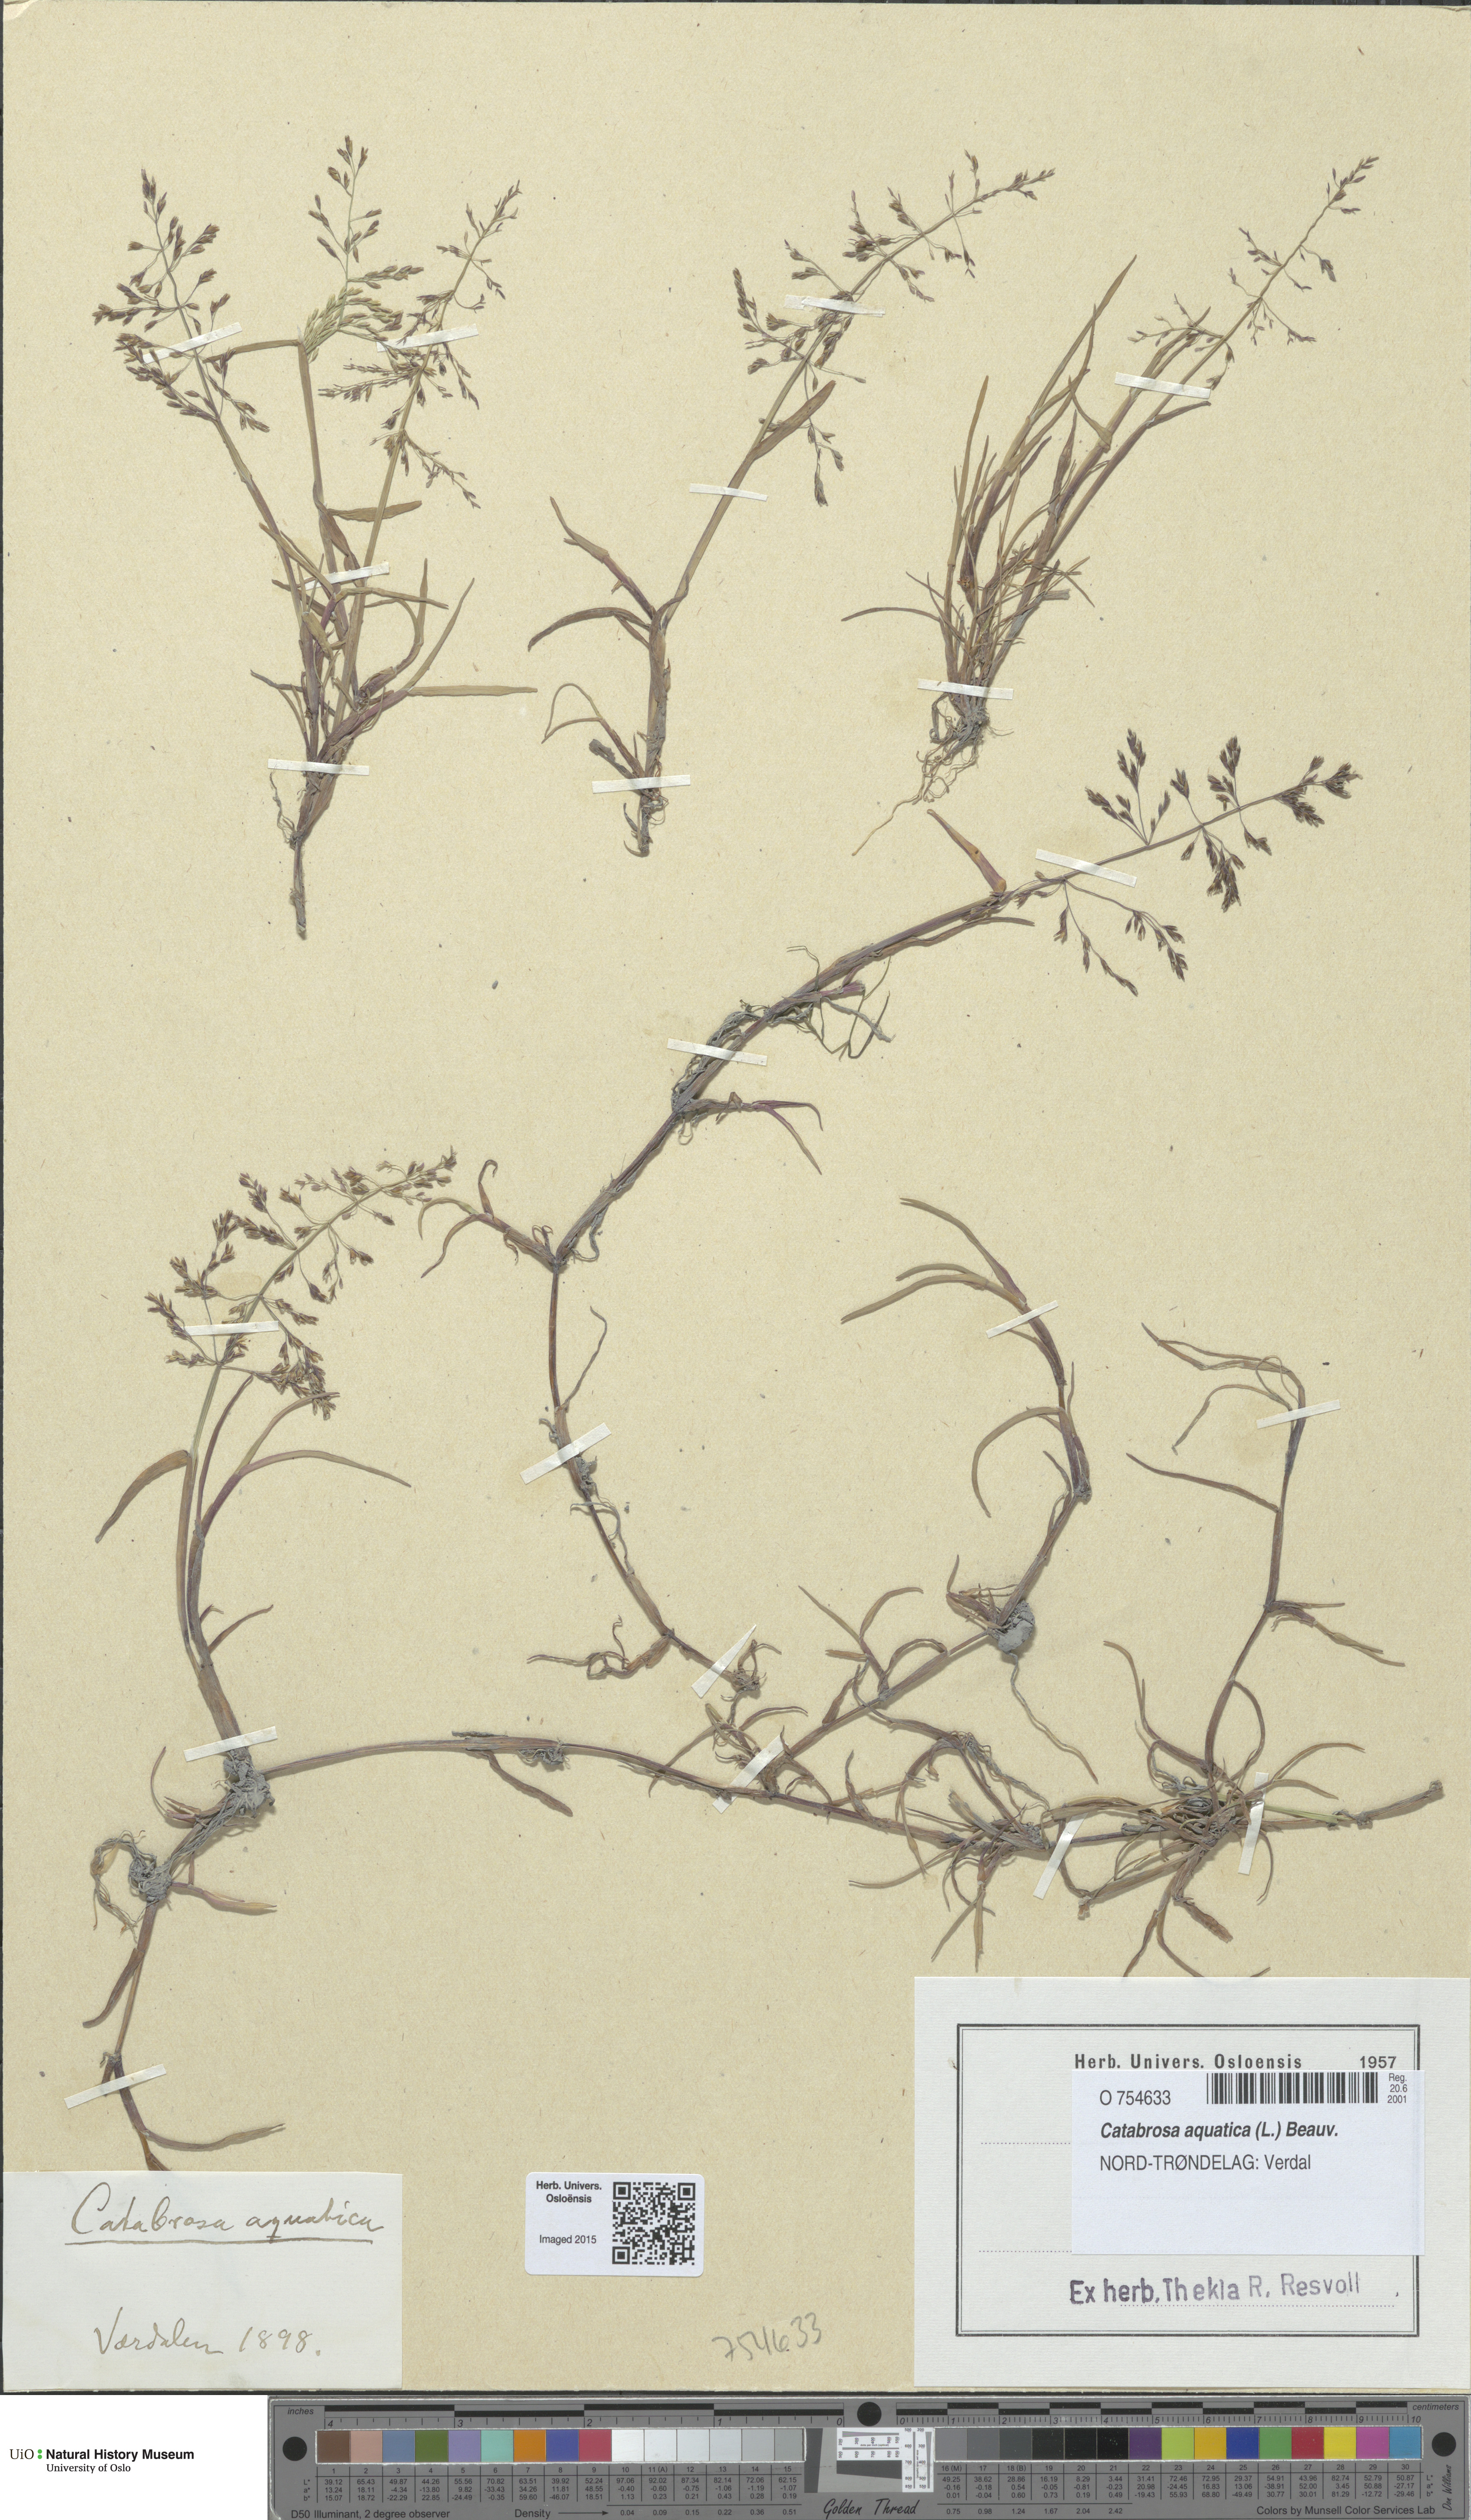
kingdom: Plantae
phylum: Tracheophyta
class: Liliopsida
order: Poales
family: Poaceae
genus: Catabrosa
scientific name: Catabrosa aquatica
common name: Whorl-grass
